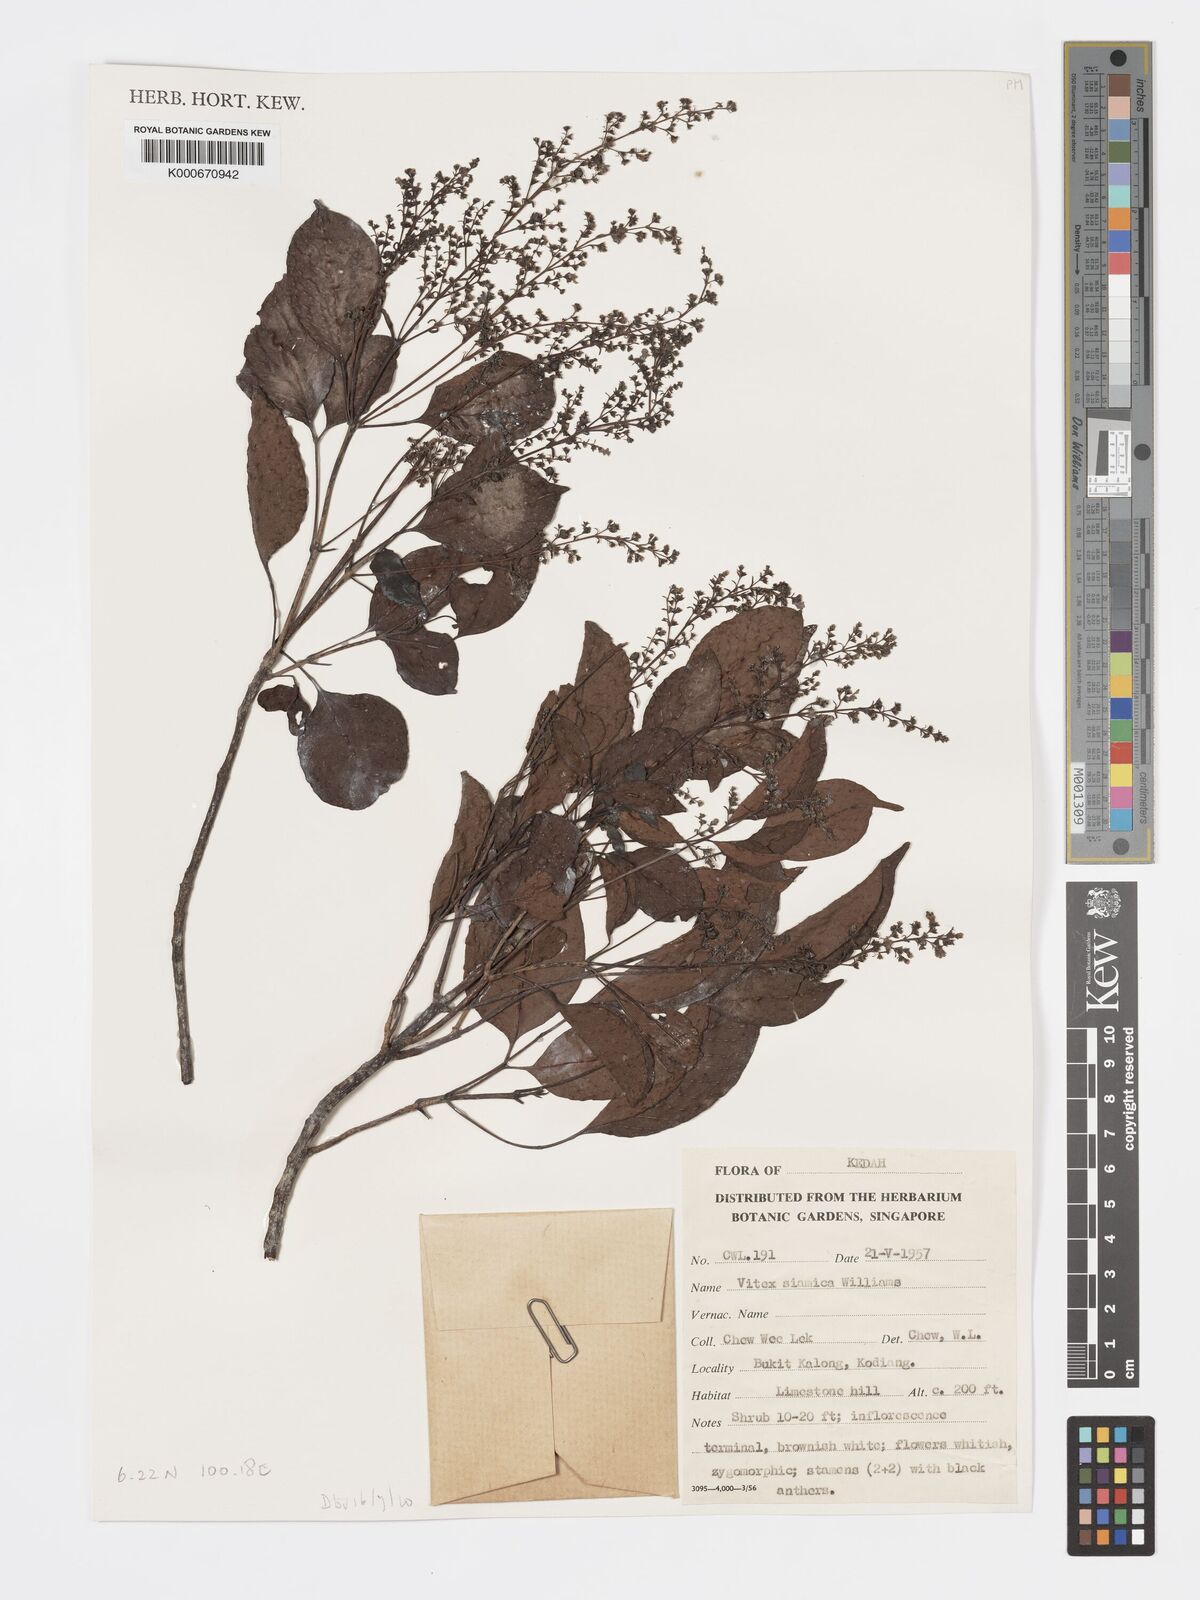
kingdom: Plantae
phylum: Tracheophyta
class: Magnoliopsida
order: Lamiales
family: Lamiaceae
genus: Vitex
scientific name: Vitex siamica
